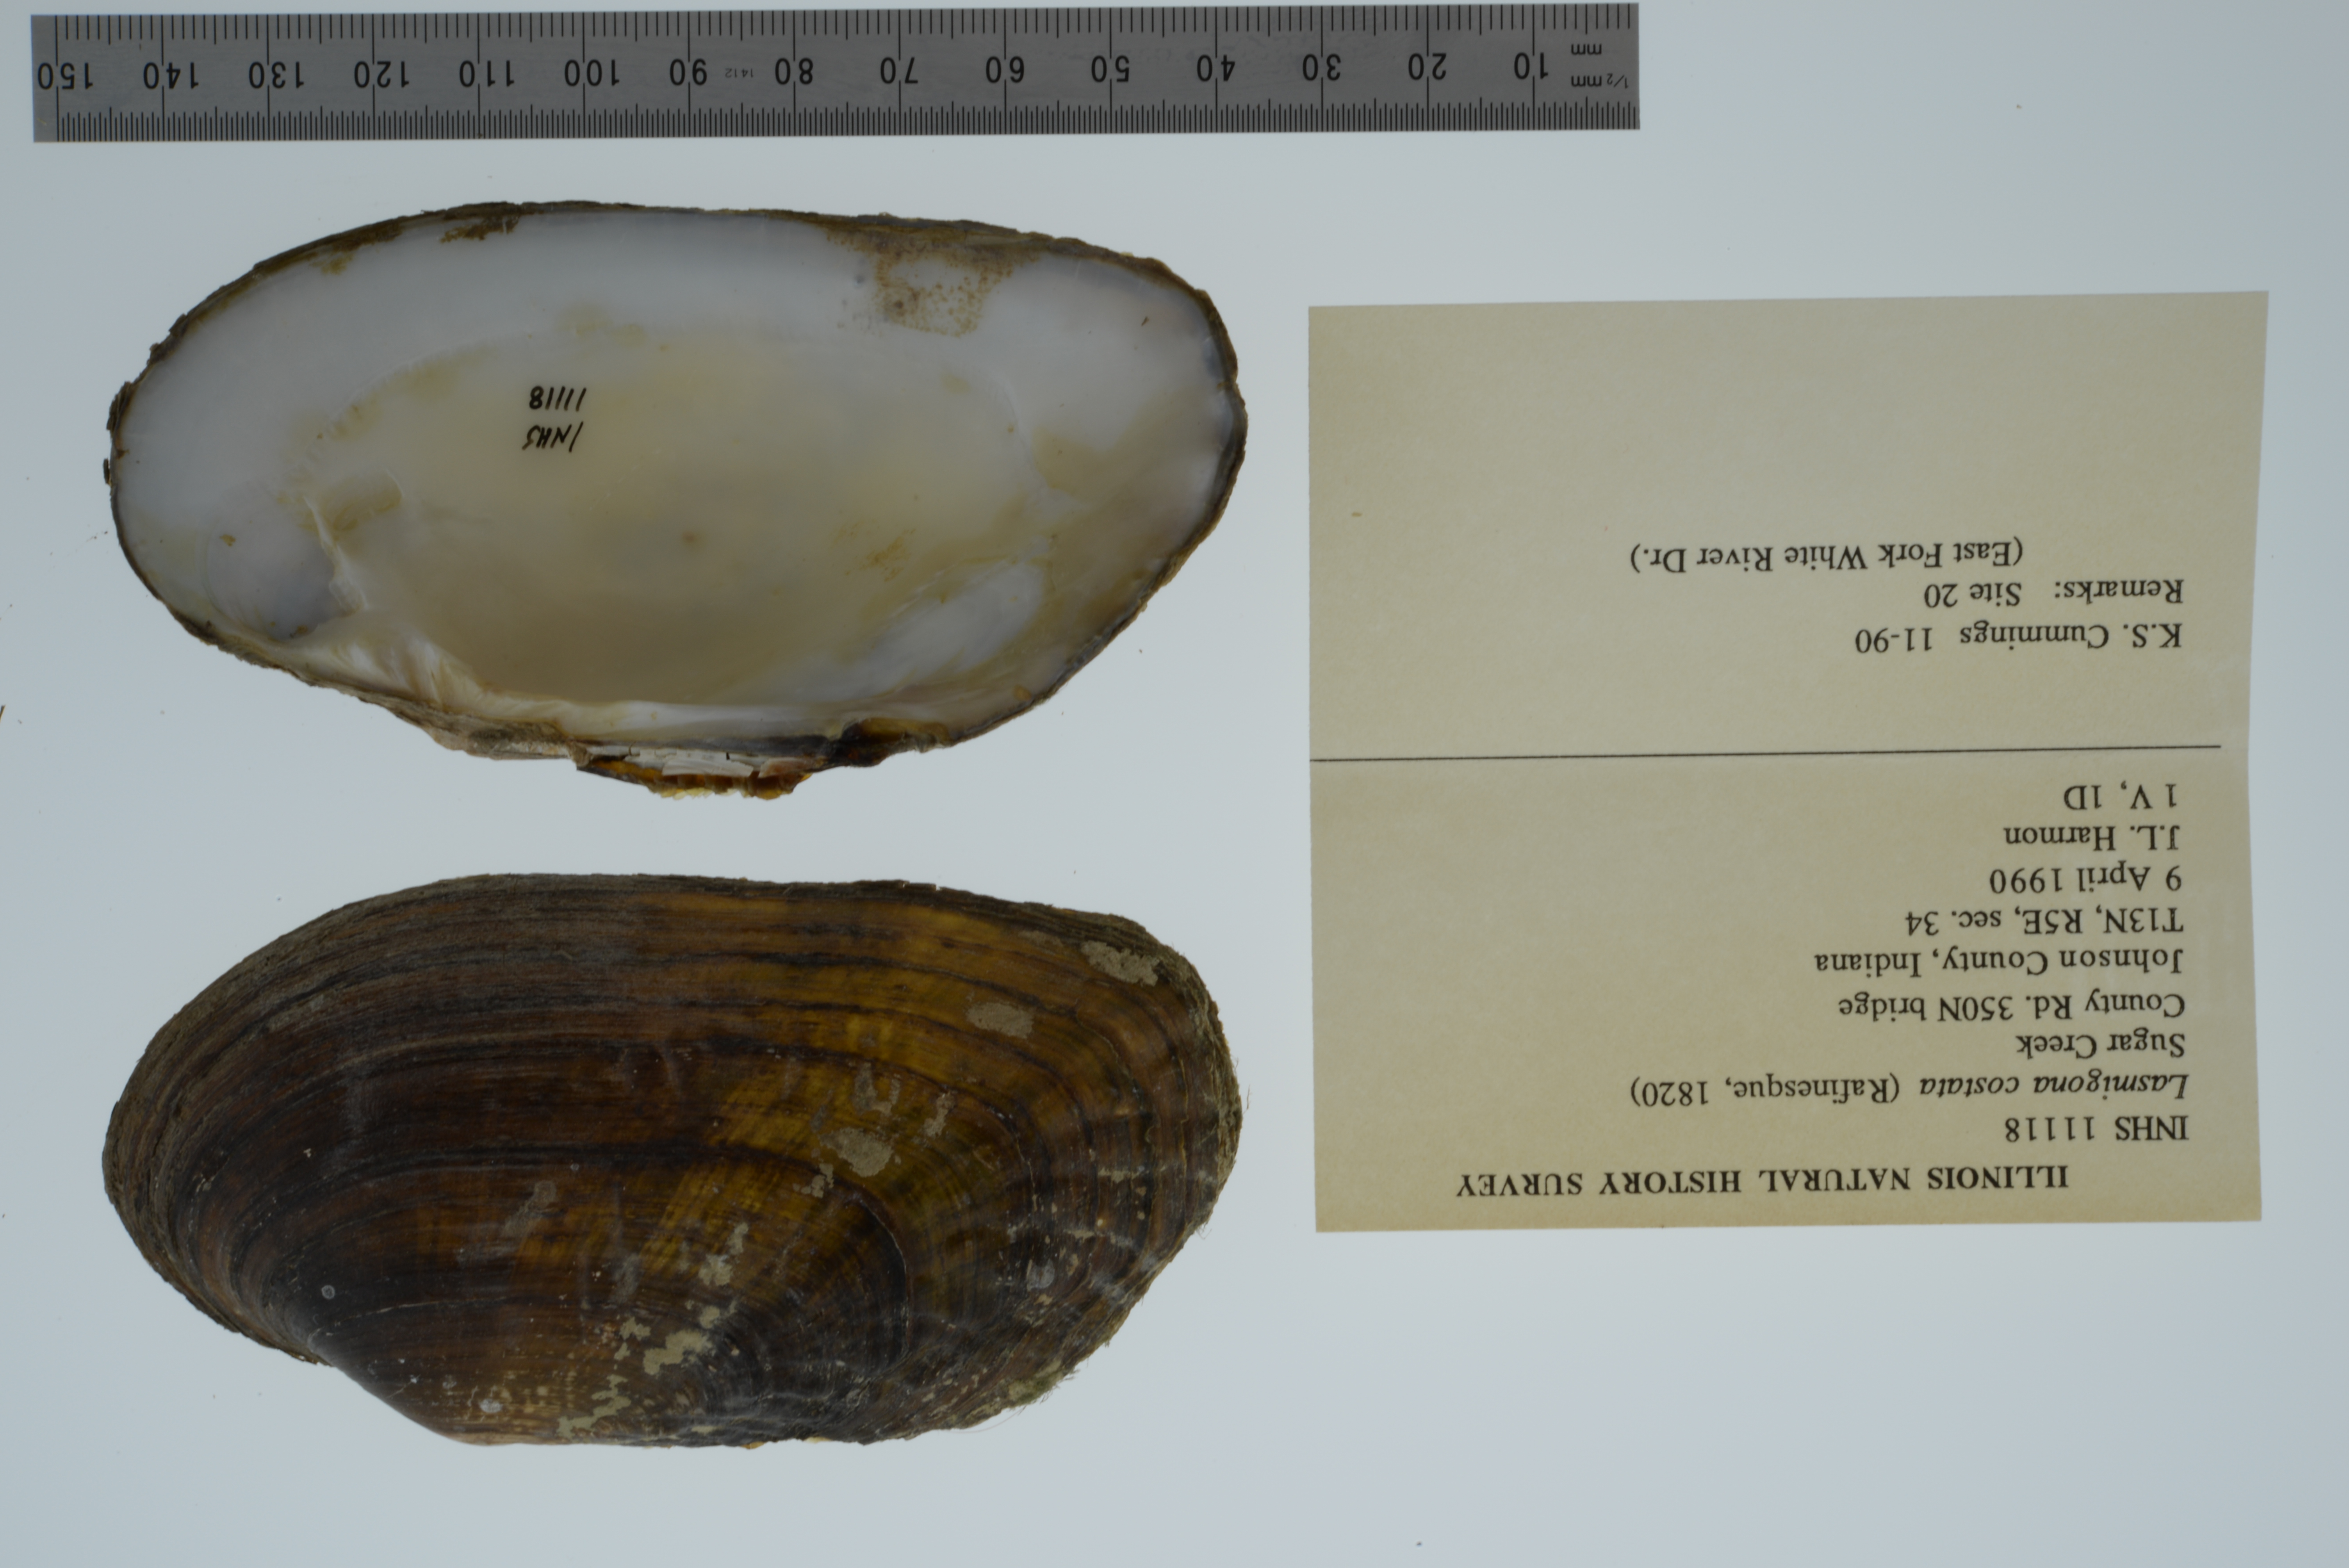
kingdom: Animalia
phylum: Mollusca
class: Bivalvia
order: Unionida
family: Unionidae
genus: Lasmigona
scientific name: Lasmigona costata
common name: Flutedshell
